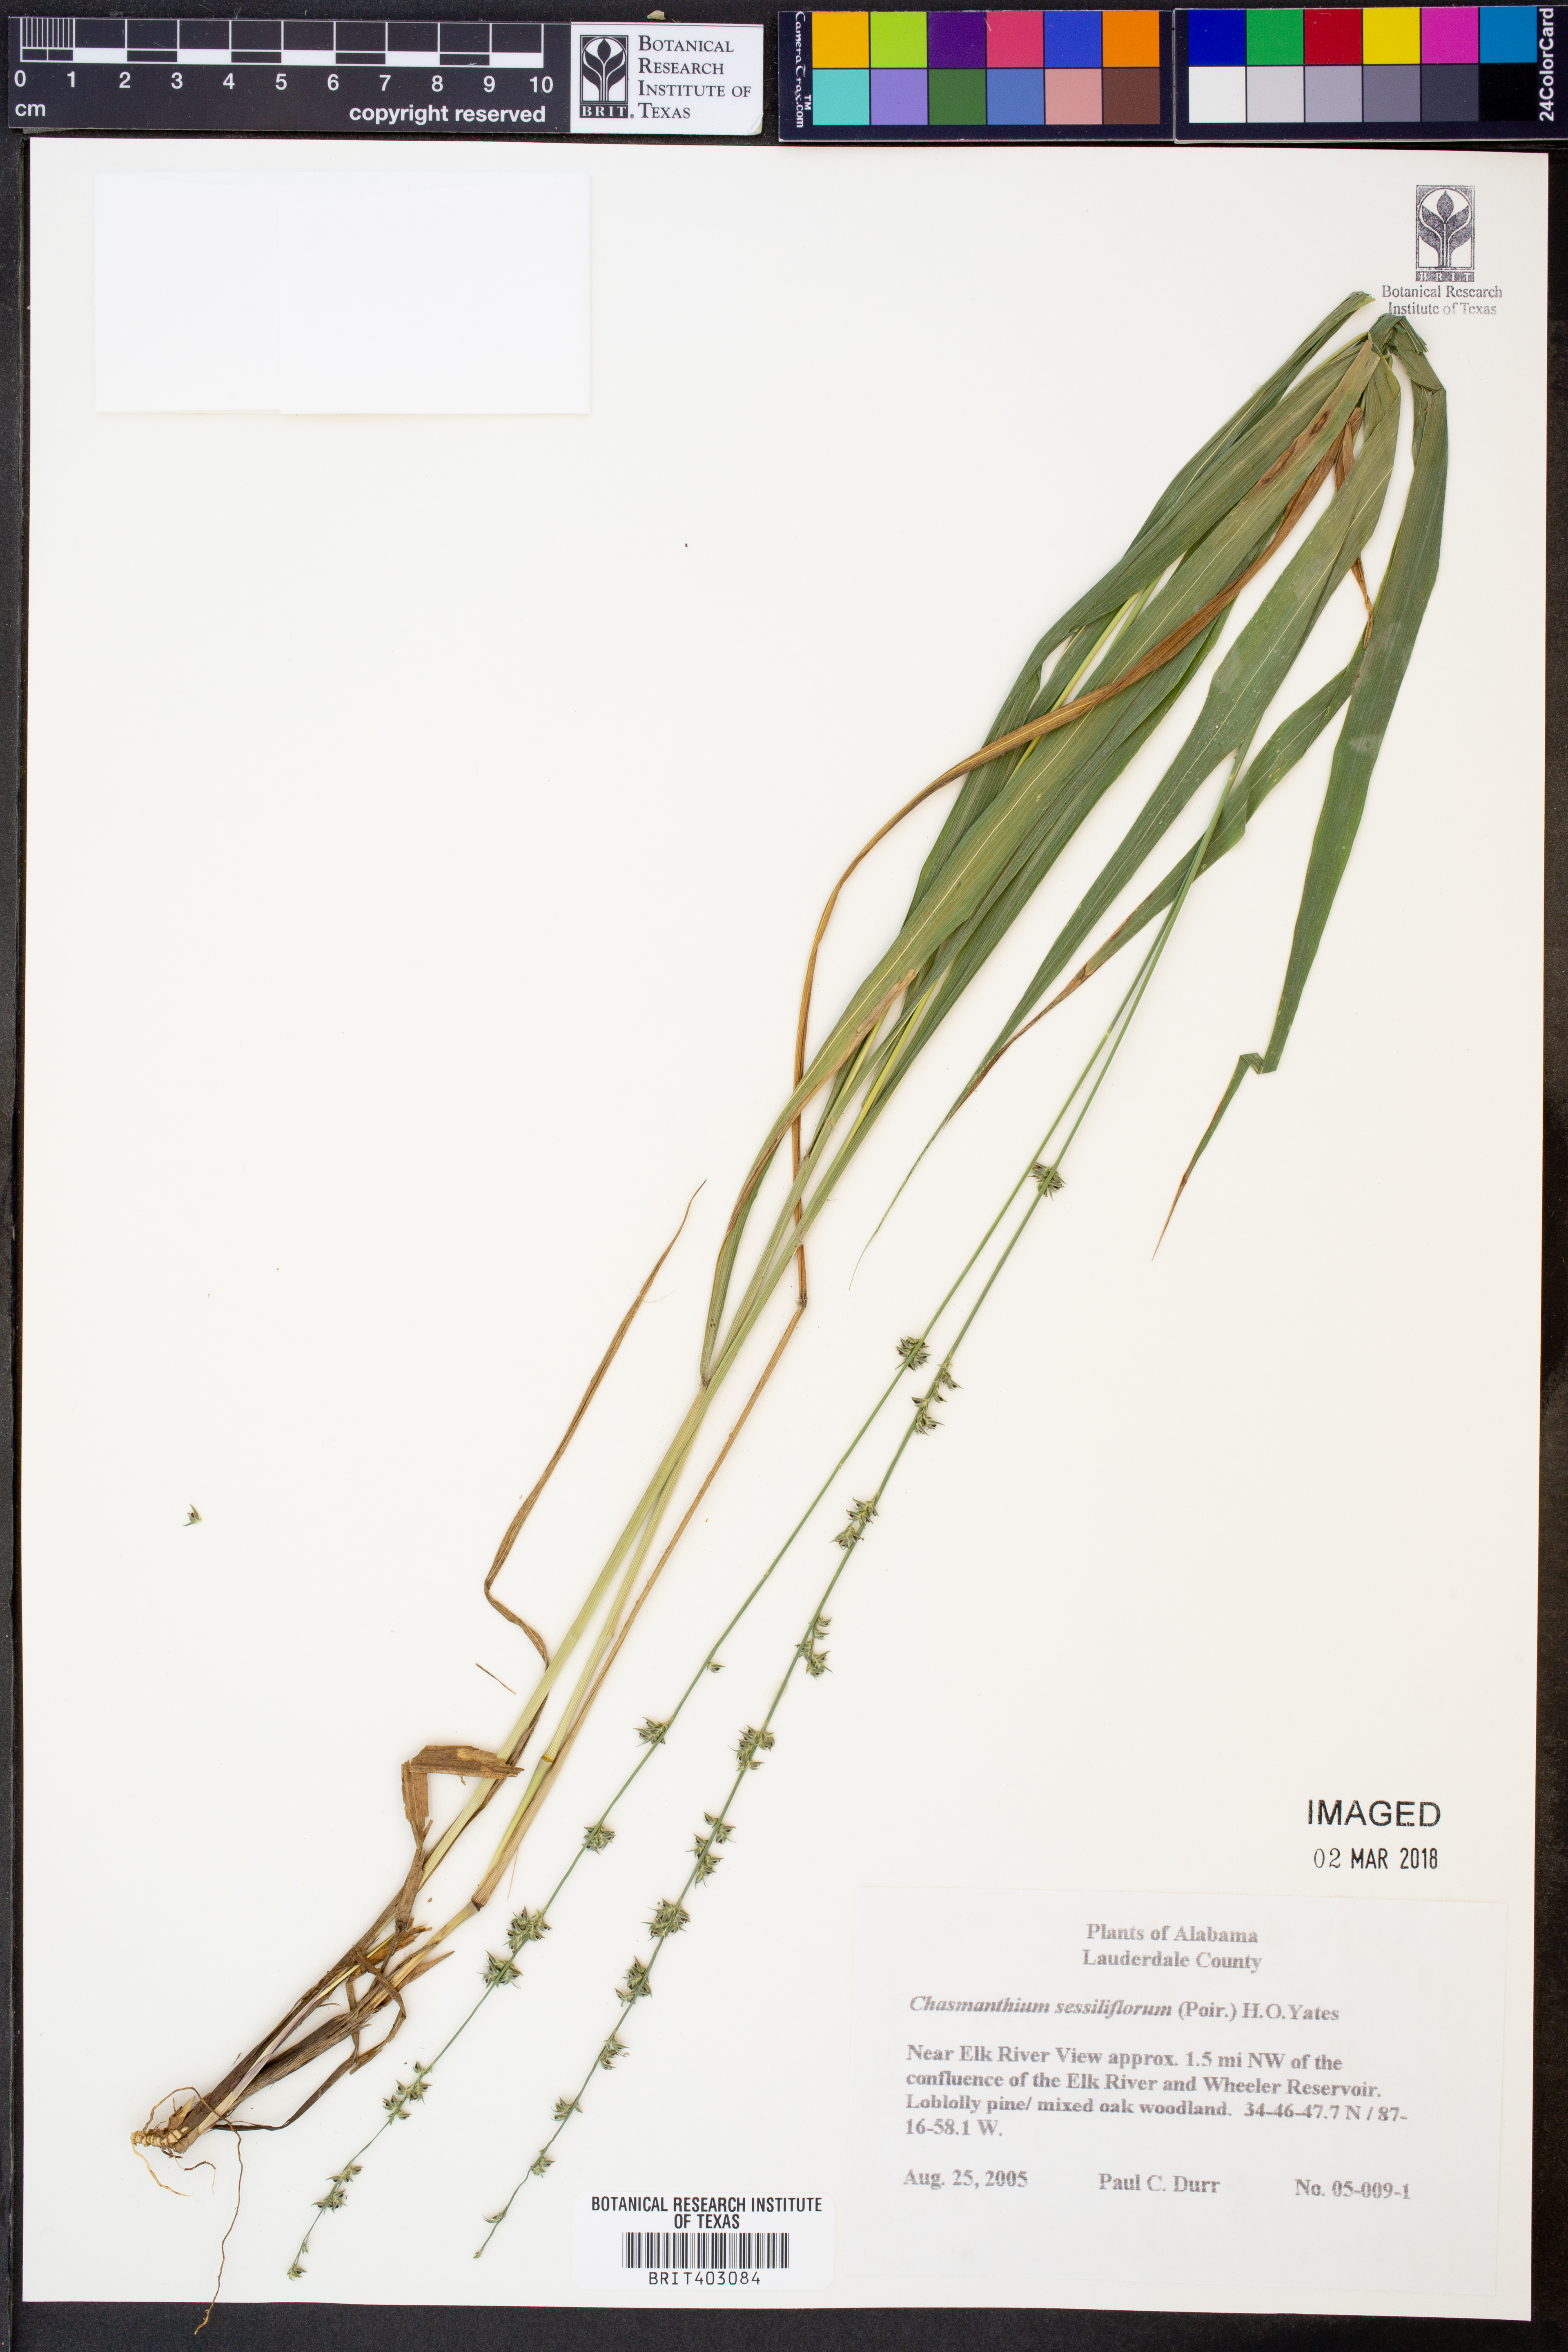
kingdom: Plantae
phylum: Tracheophyta
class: Liliopsida
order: Poales
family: Poaceae
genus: Chasmanthium
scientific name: Chasmanthium laxum
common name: Slender chasmanthium
